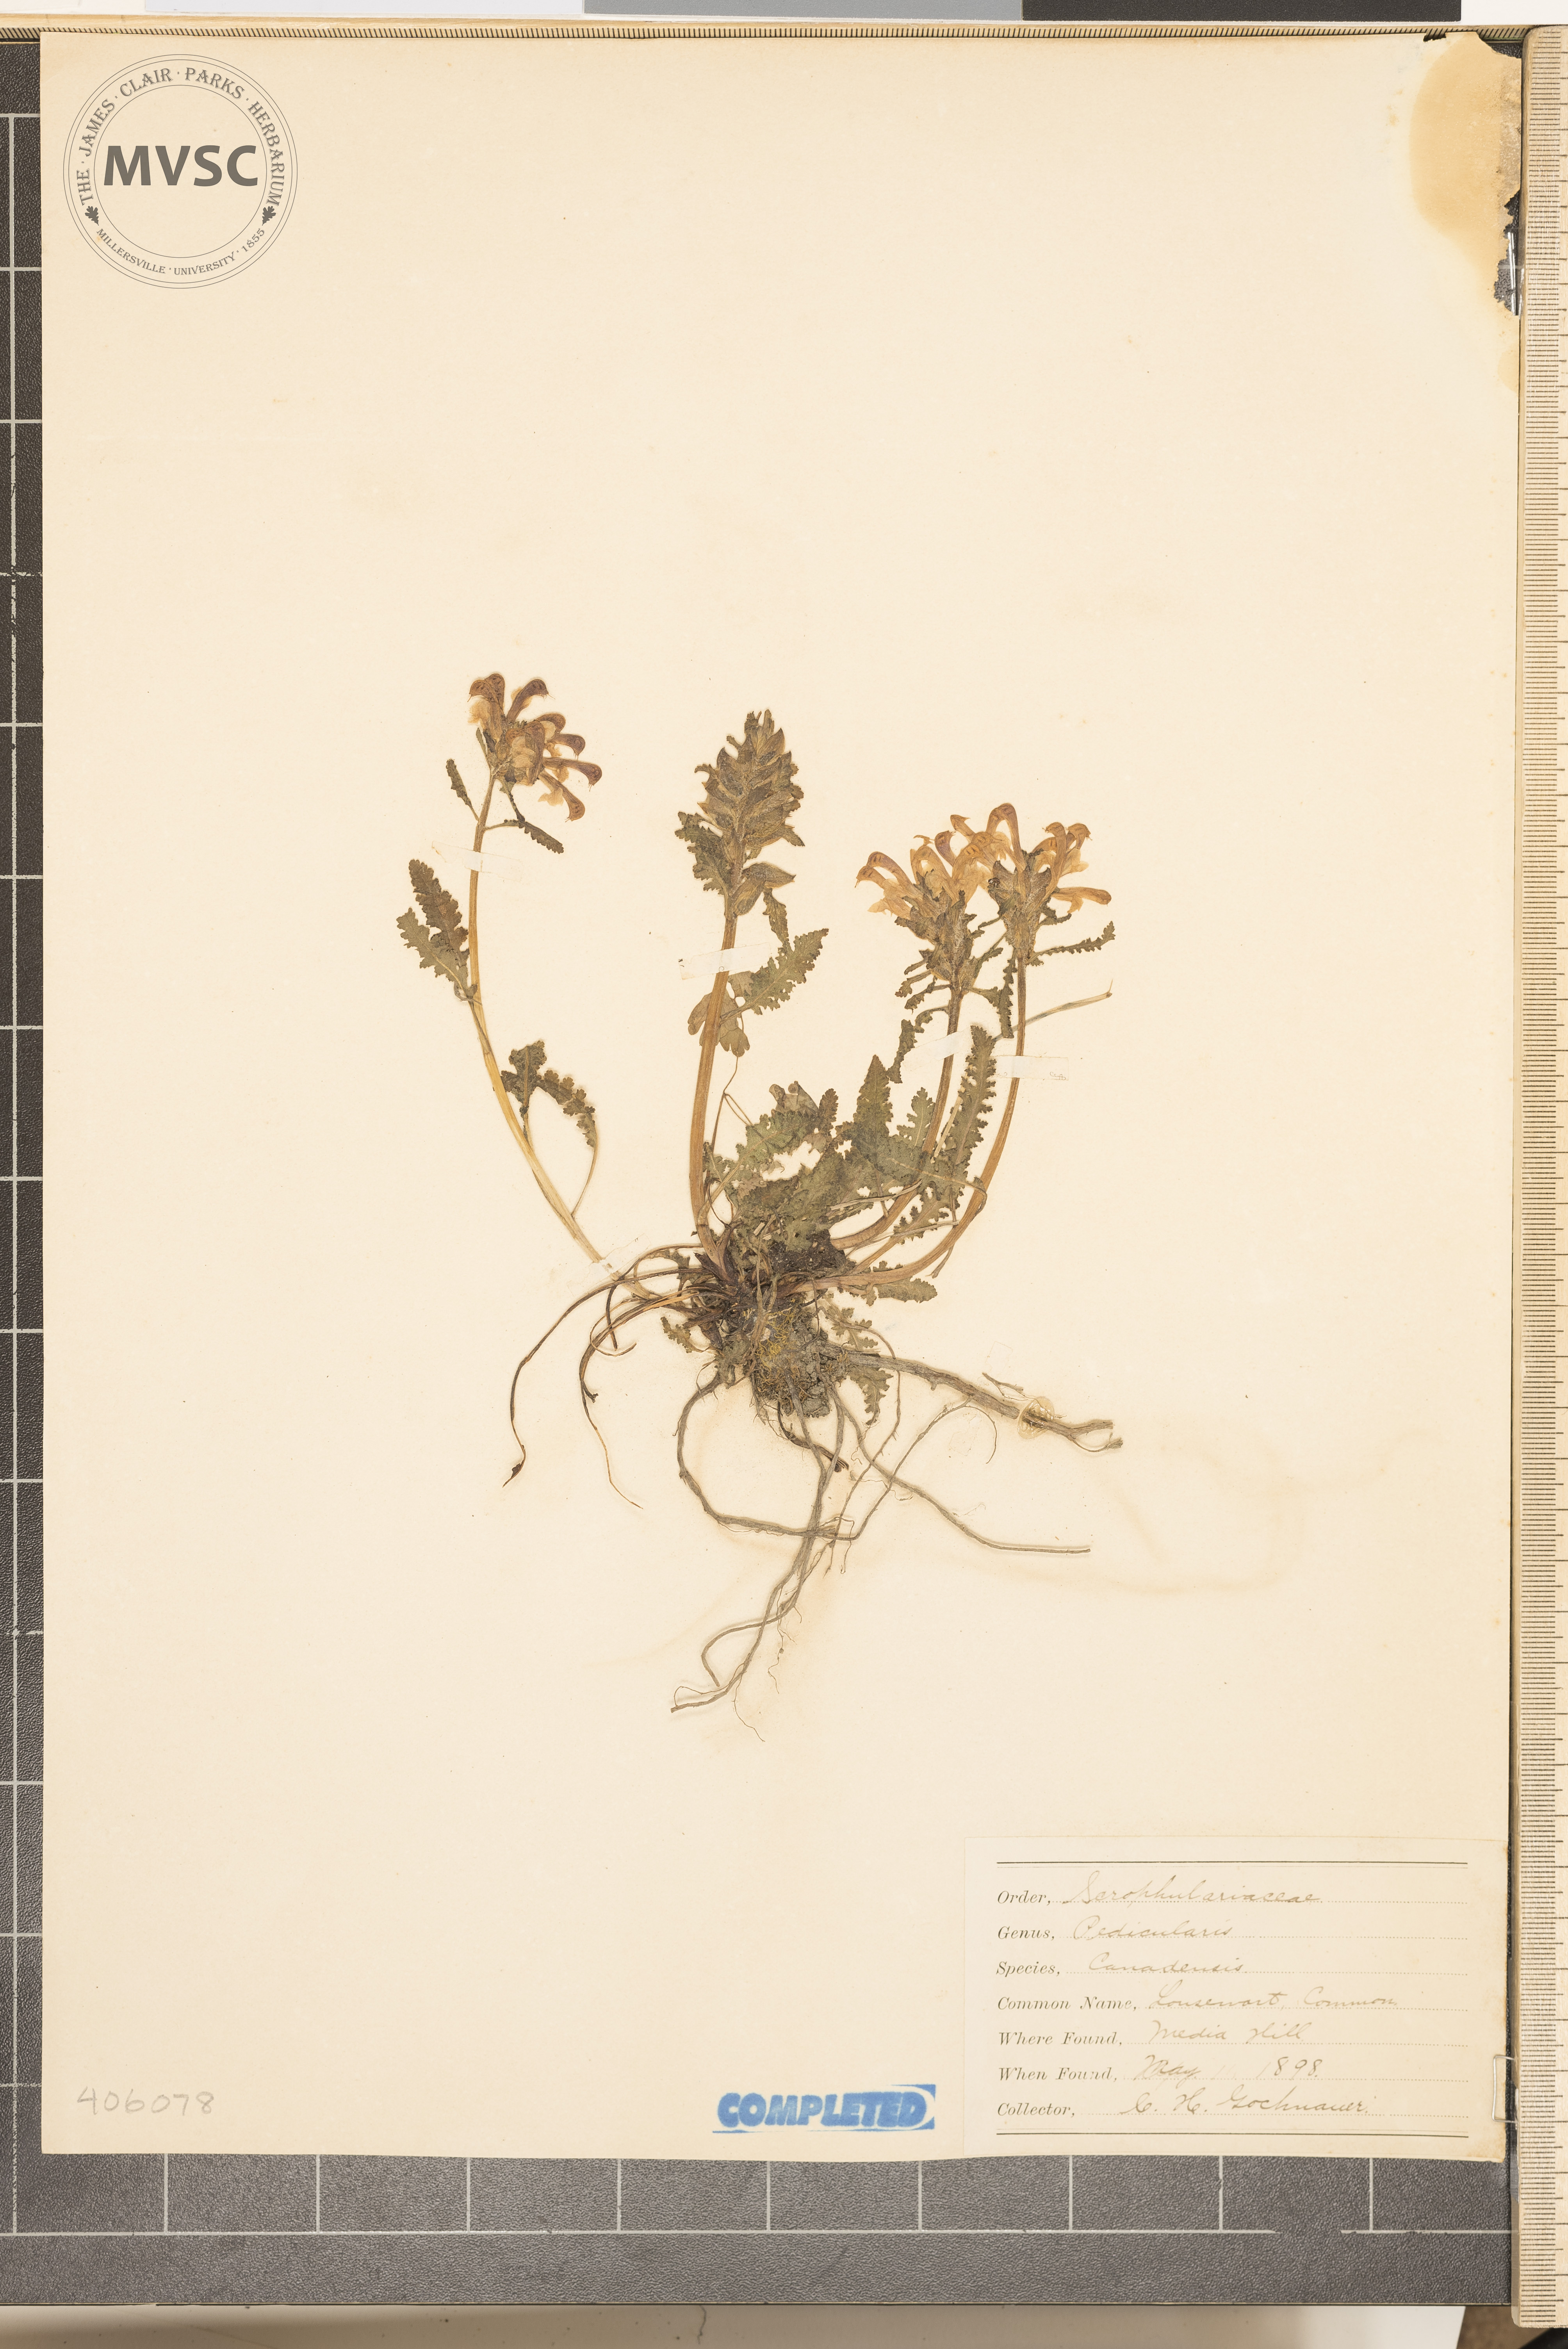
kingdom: Plantae
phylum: Tracheophyta
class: Magnoliopsida
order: Lamiales
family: Orobanchaceae
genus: Pedicularis
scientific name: Pedicularis canadensis
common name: Early lousewort
